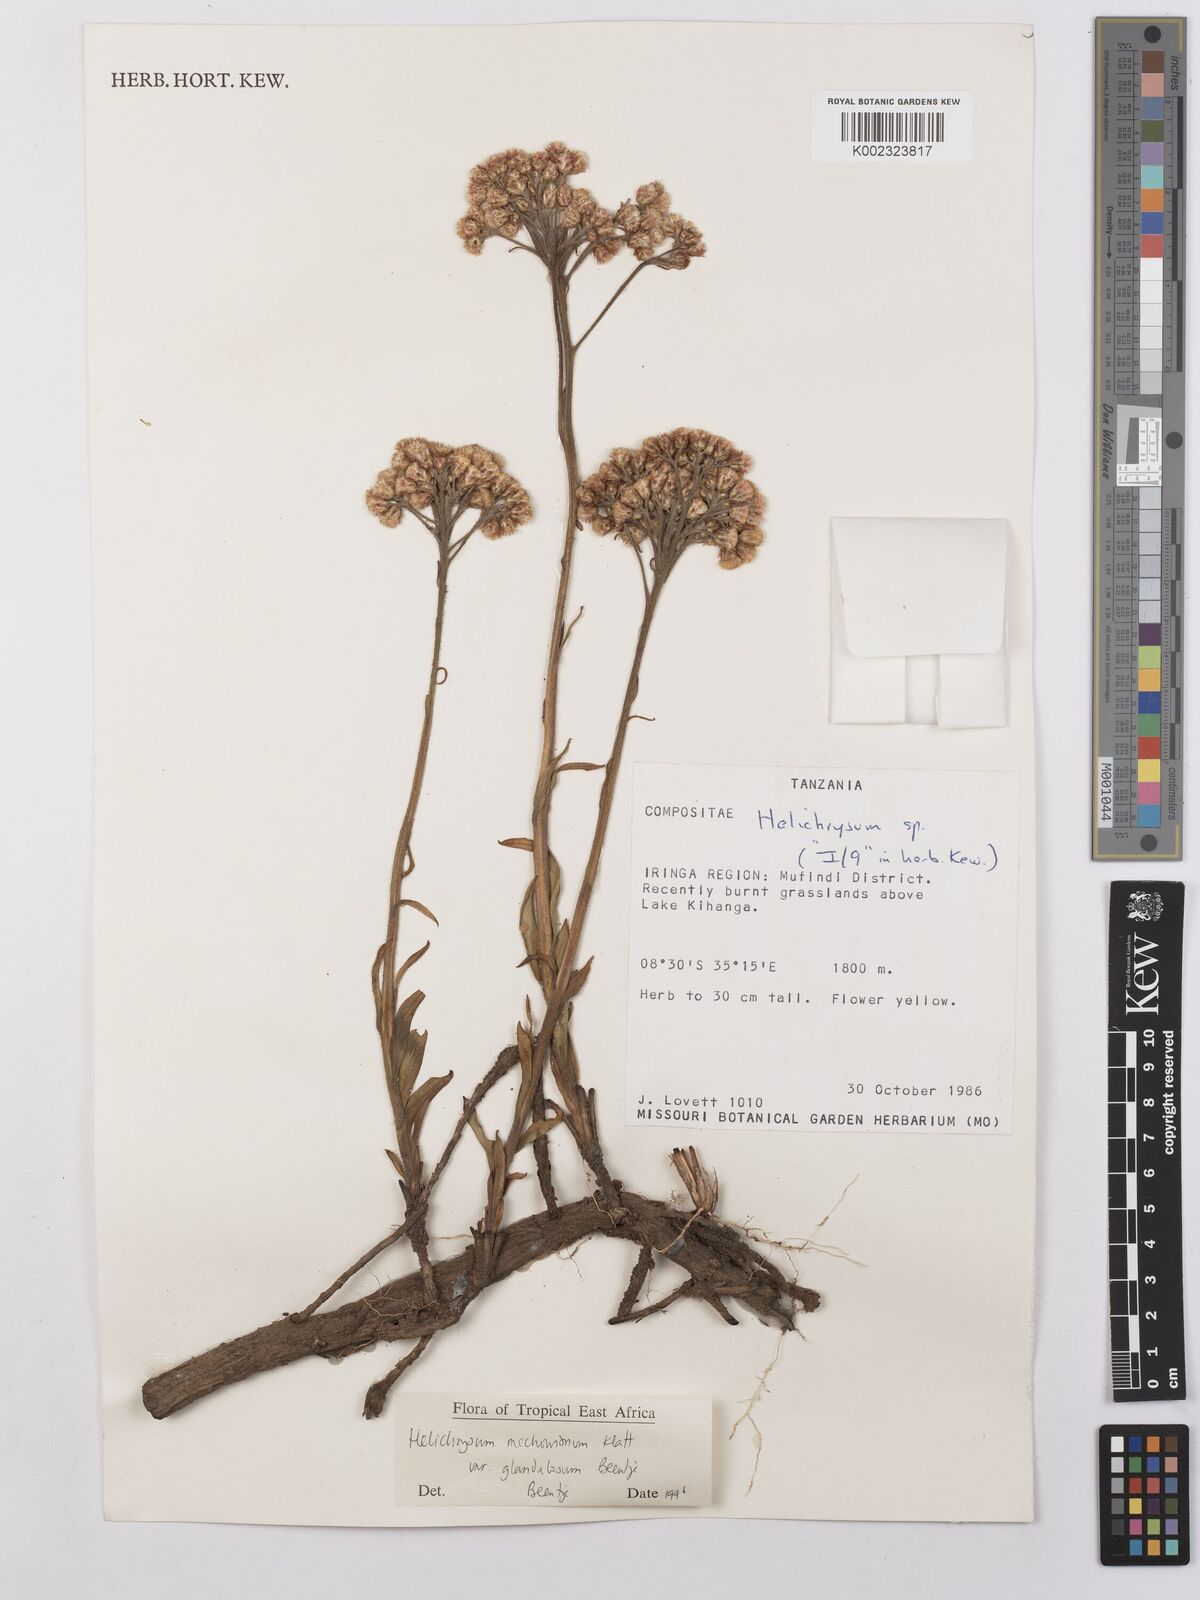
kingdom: Plantae
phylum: Tracheophyta
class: Magnoliopsida
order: Asterales
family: Asteraceae
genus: Helichrysum
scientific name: Helichrysum mechowianum
